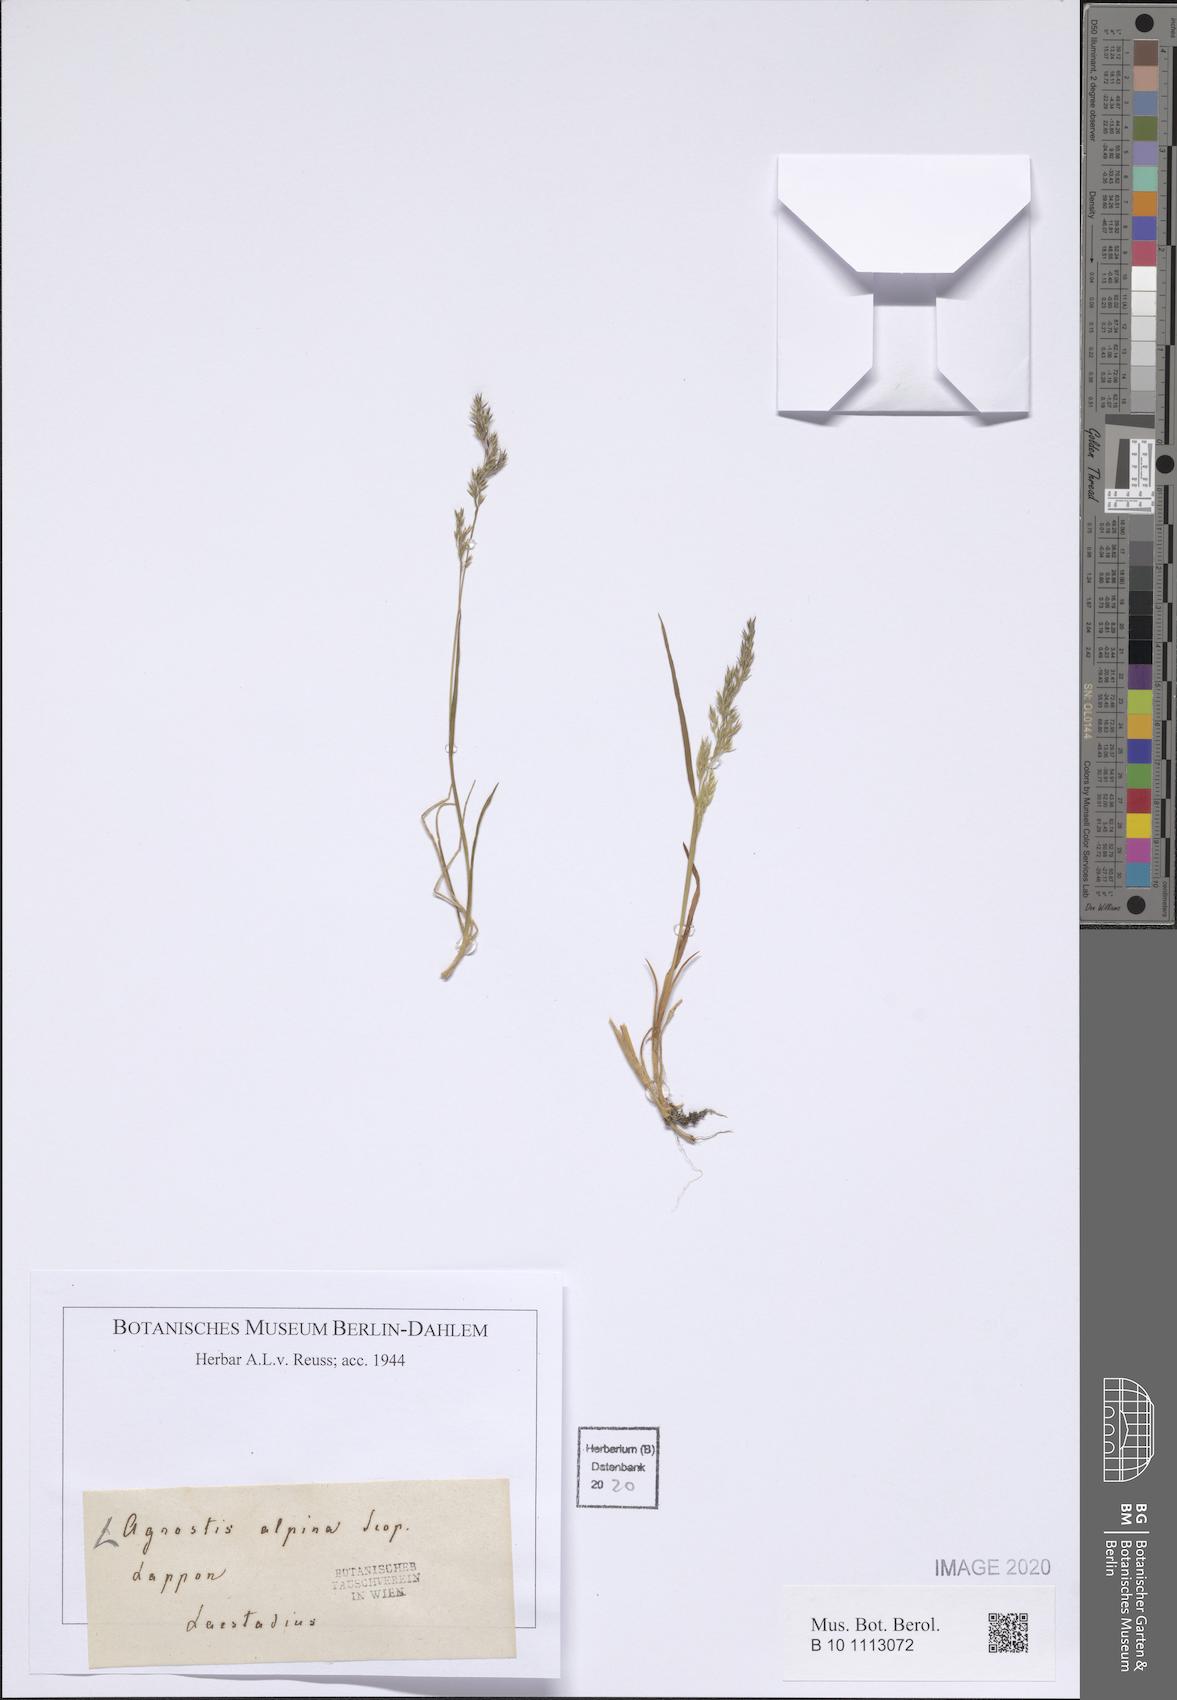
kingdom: Plantae
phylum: Tracheophyta
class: Liliopsida
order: Poales
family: Poaceae
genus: Alpagrostis
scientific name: Alpagrostis alpina
